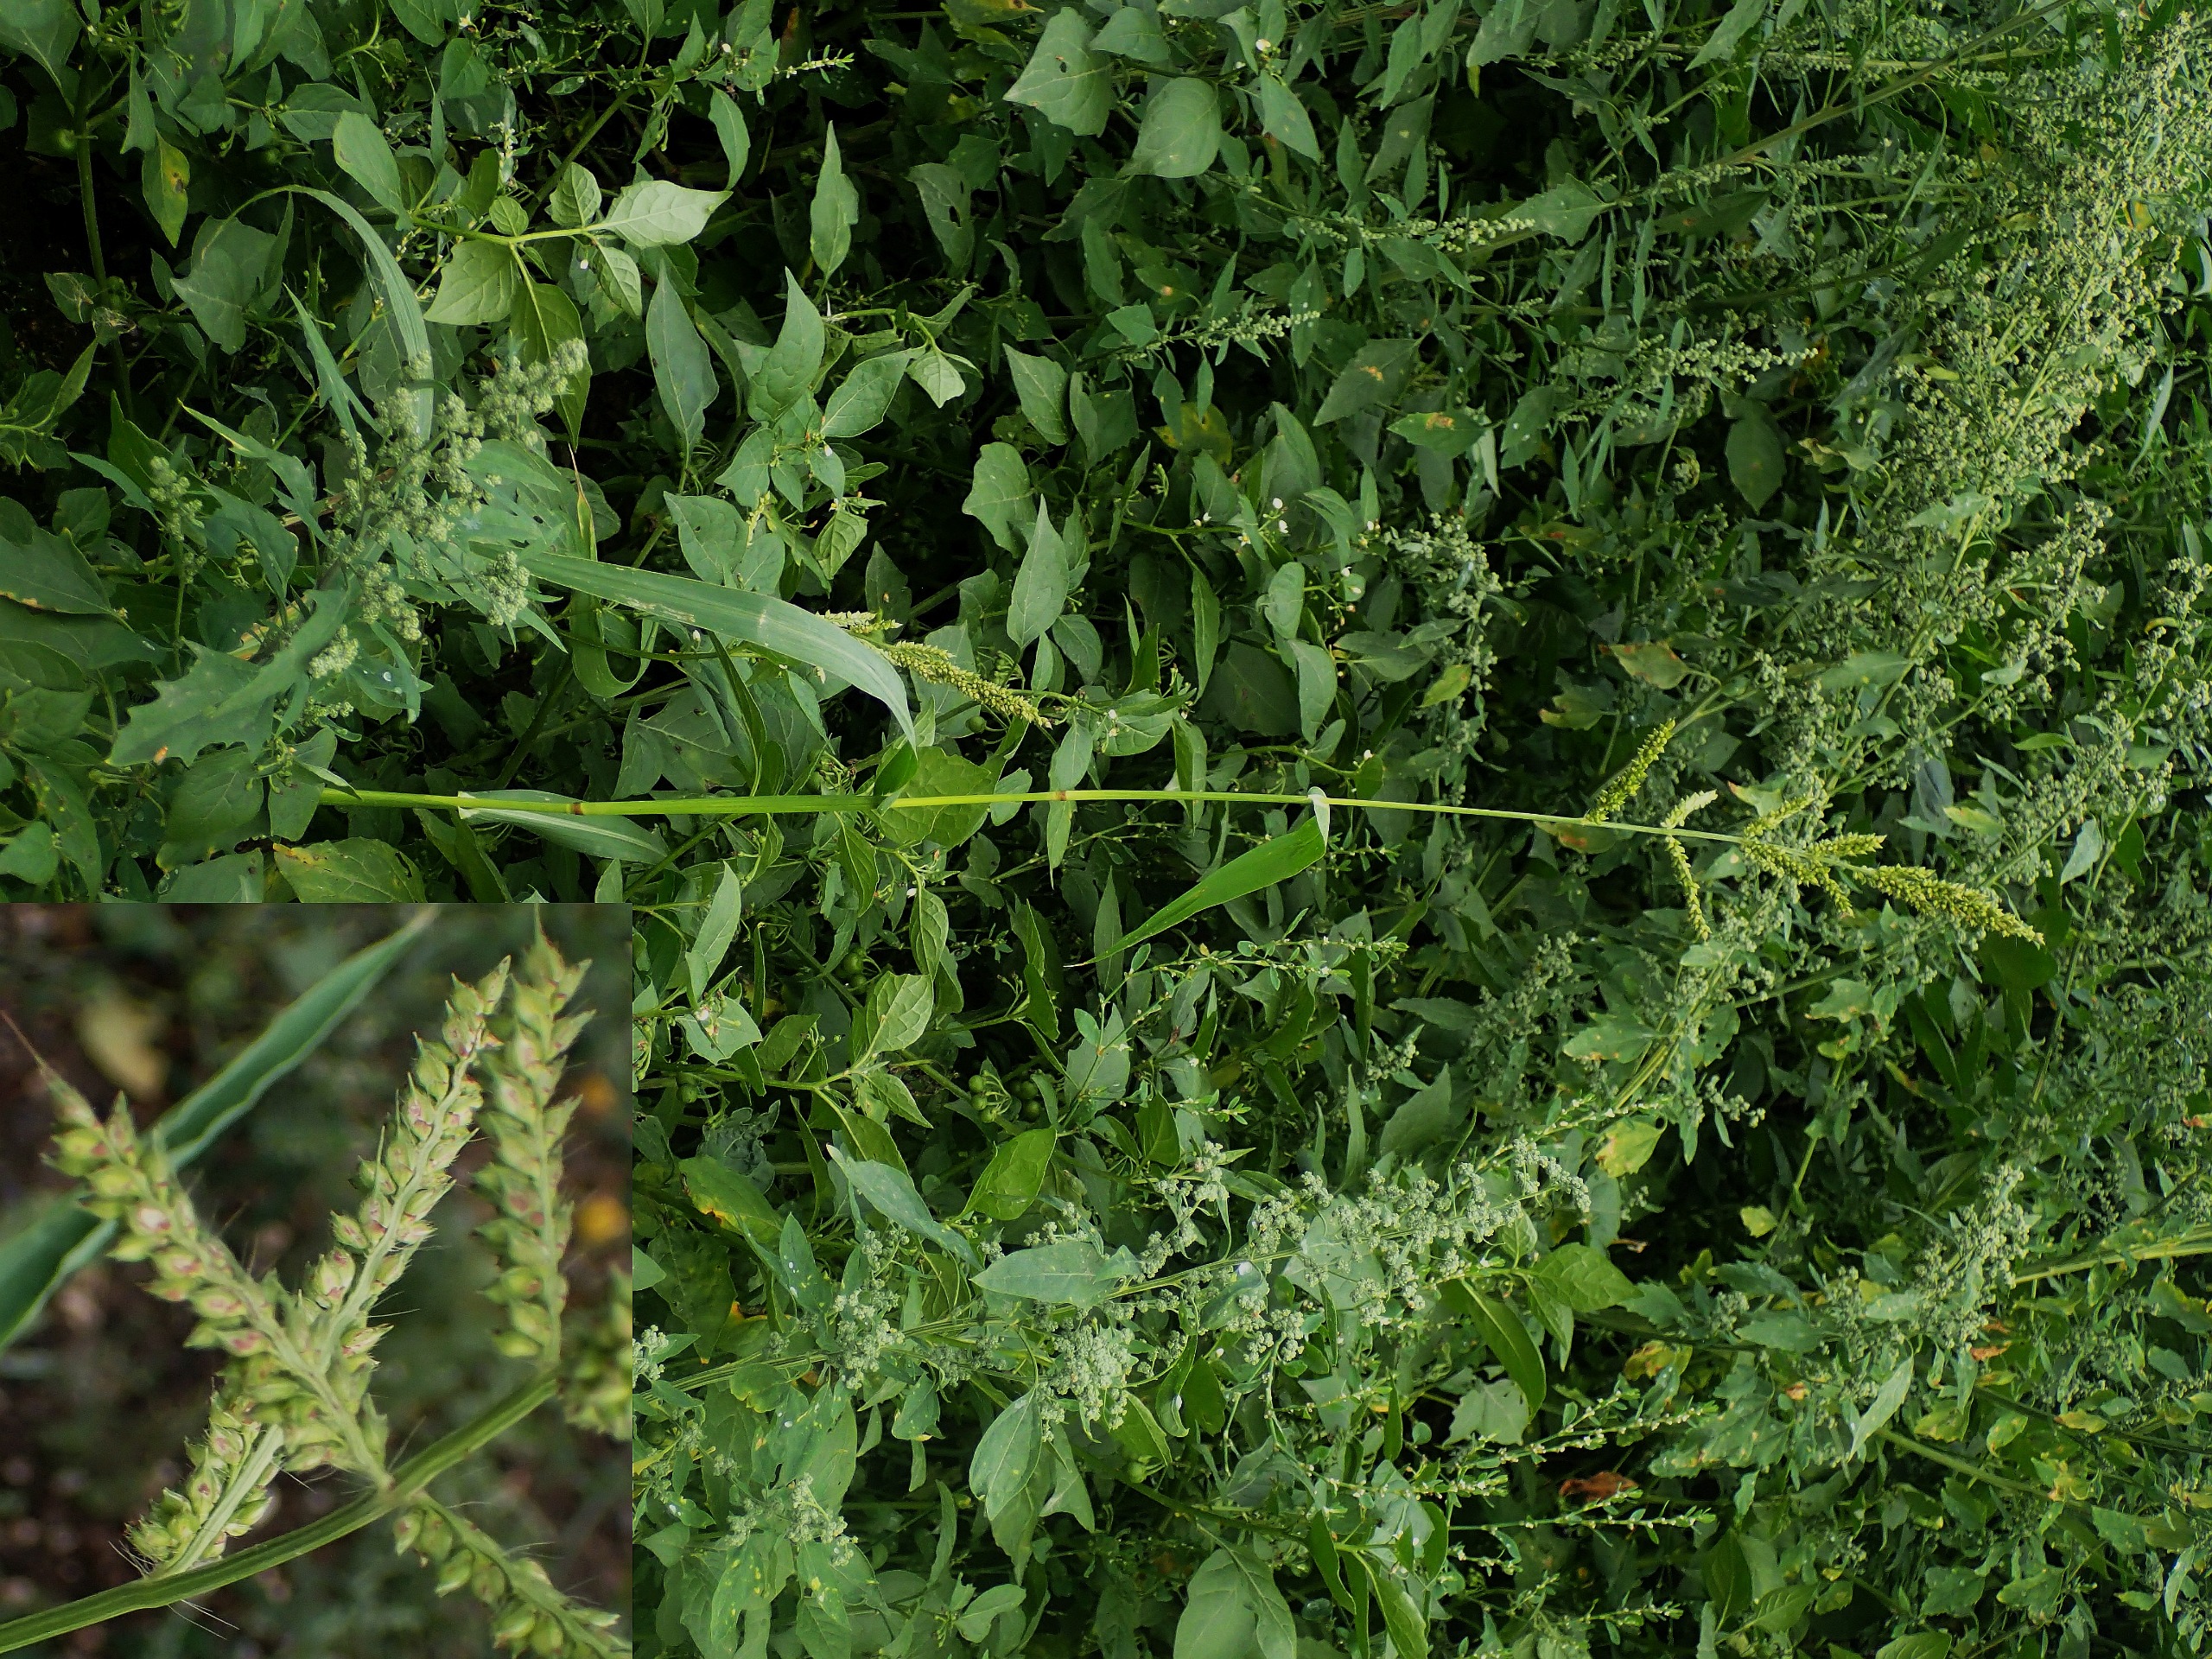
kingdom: Plantae
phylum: Tracheophyta
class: Liliopsida
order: Poales
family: Poaceae
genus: Echinochloa
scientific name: Echinochloa crus-galli
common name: Almindelig hanespore
